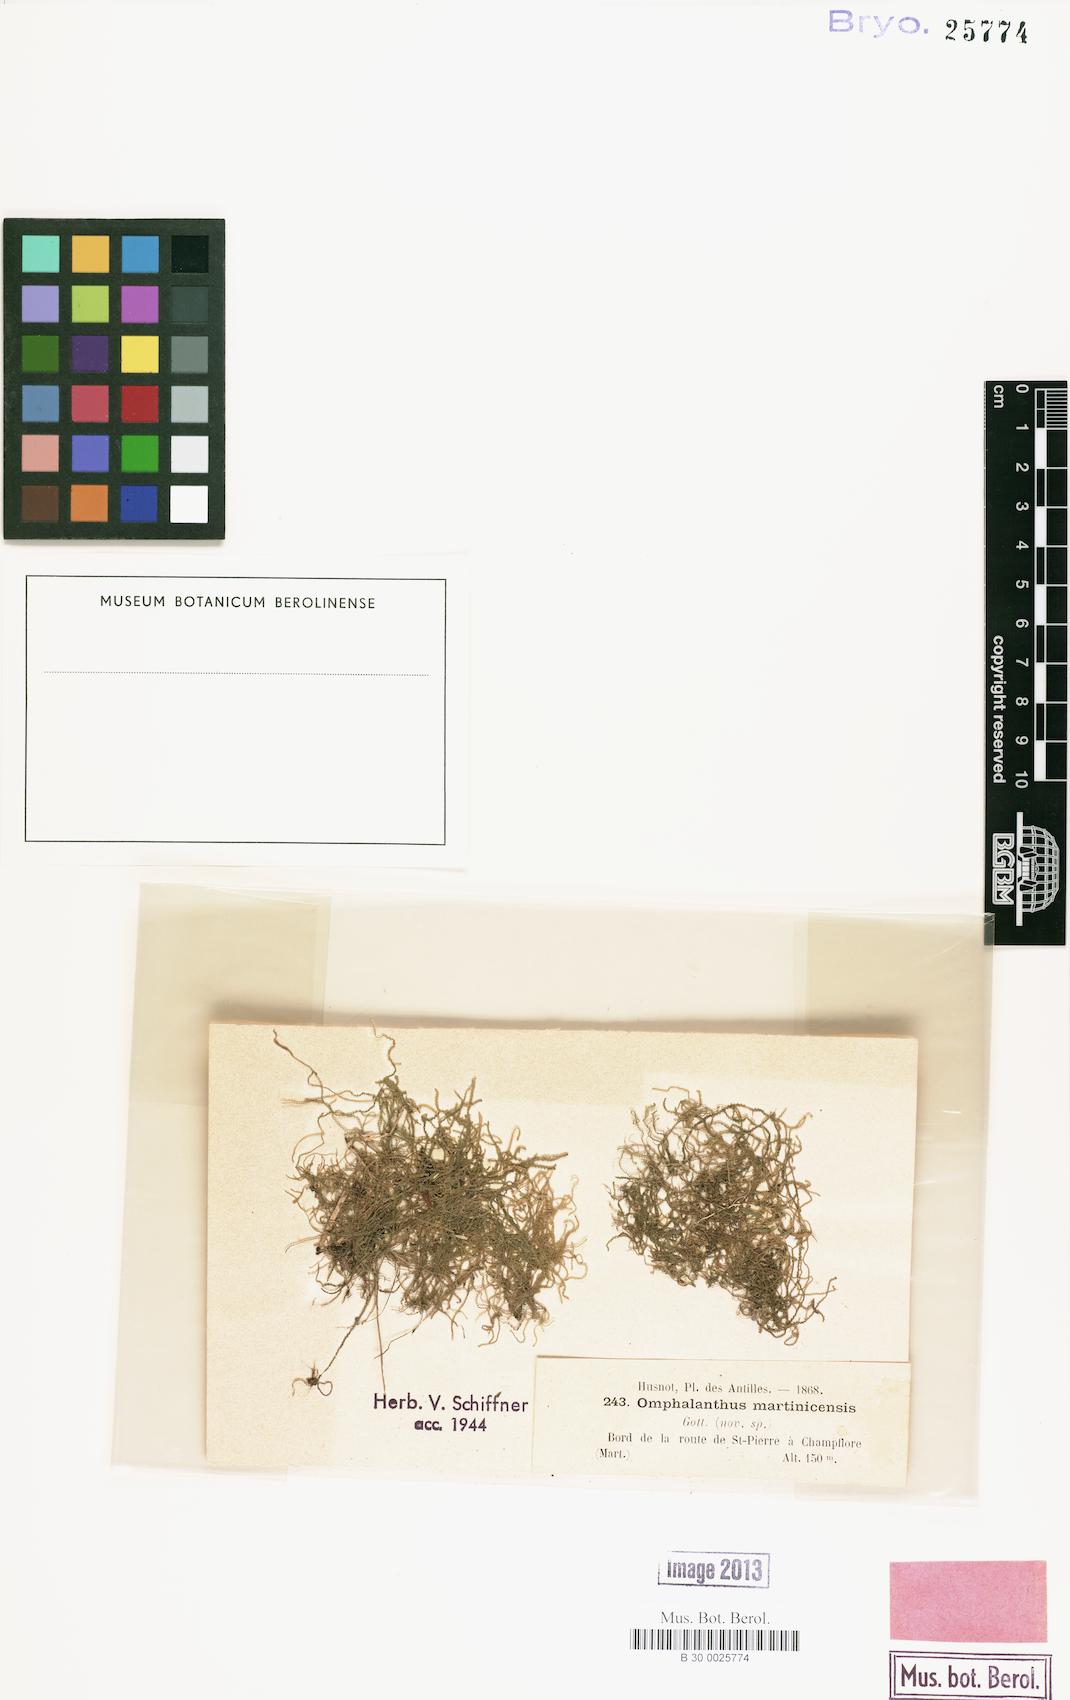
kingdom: Plantae
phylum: Marchantiophyta
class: Jungermanniopsida
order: Porellales
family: Lejeuneaceae
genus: Lejeunea
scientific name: Lejeunea debilis
